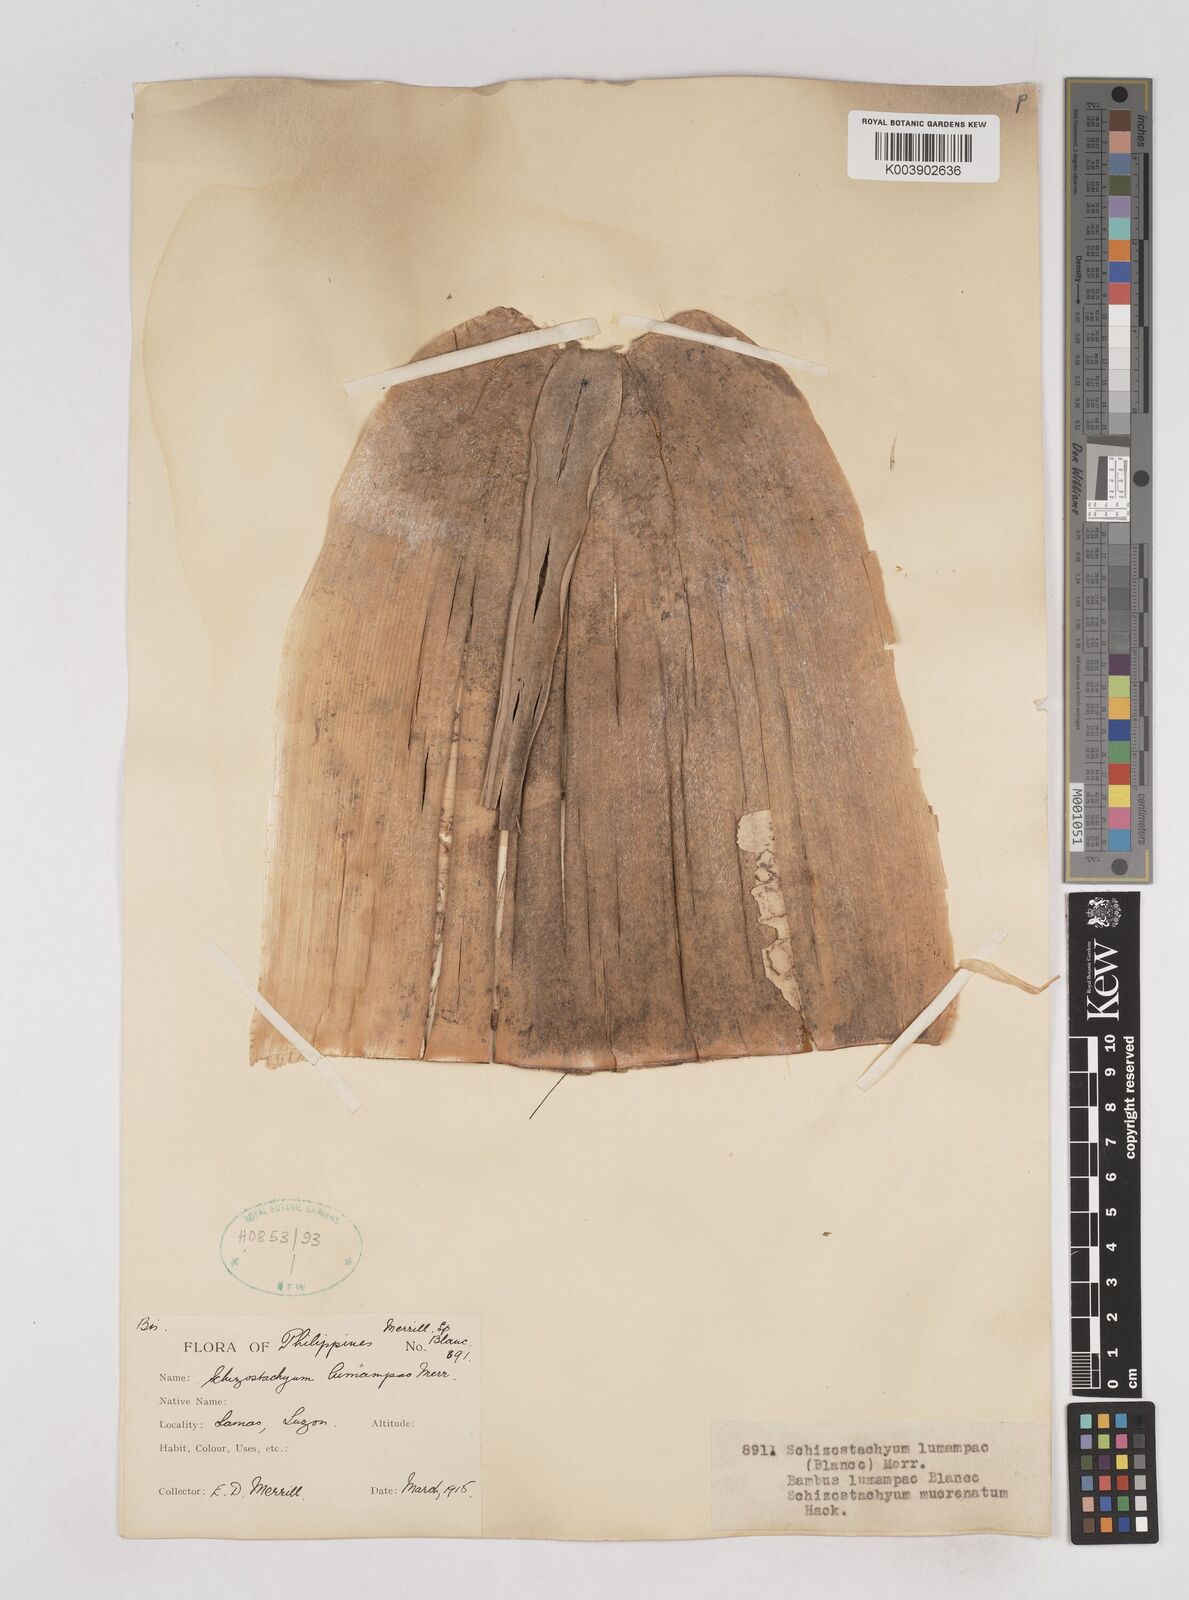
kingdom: Plantae
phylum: Tracheophyta
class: Liliopsida
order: Poales
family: Poaceae
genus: Schizostachyum
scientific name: Schizostachyum lumampao
